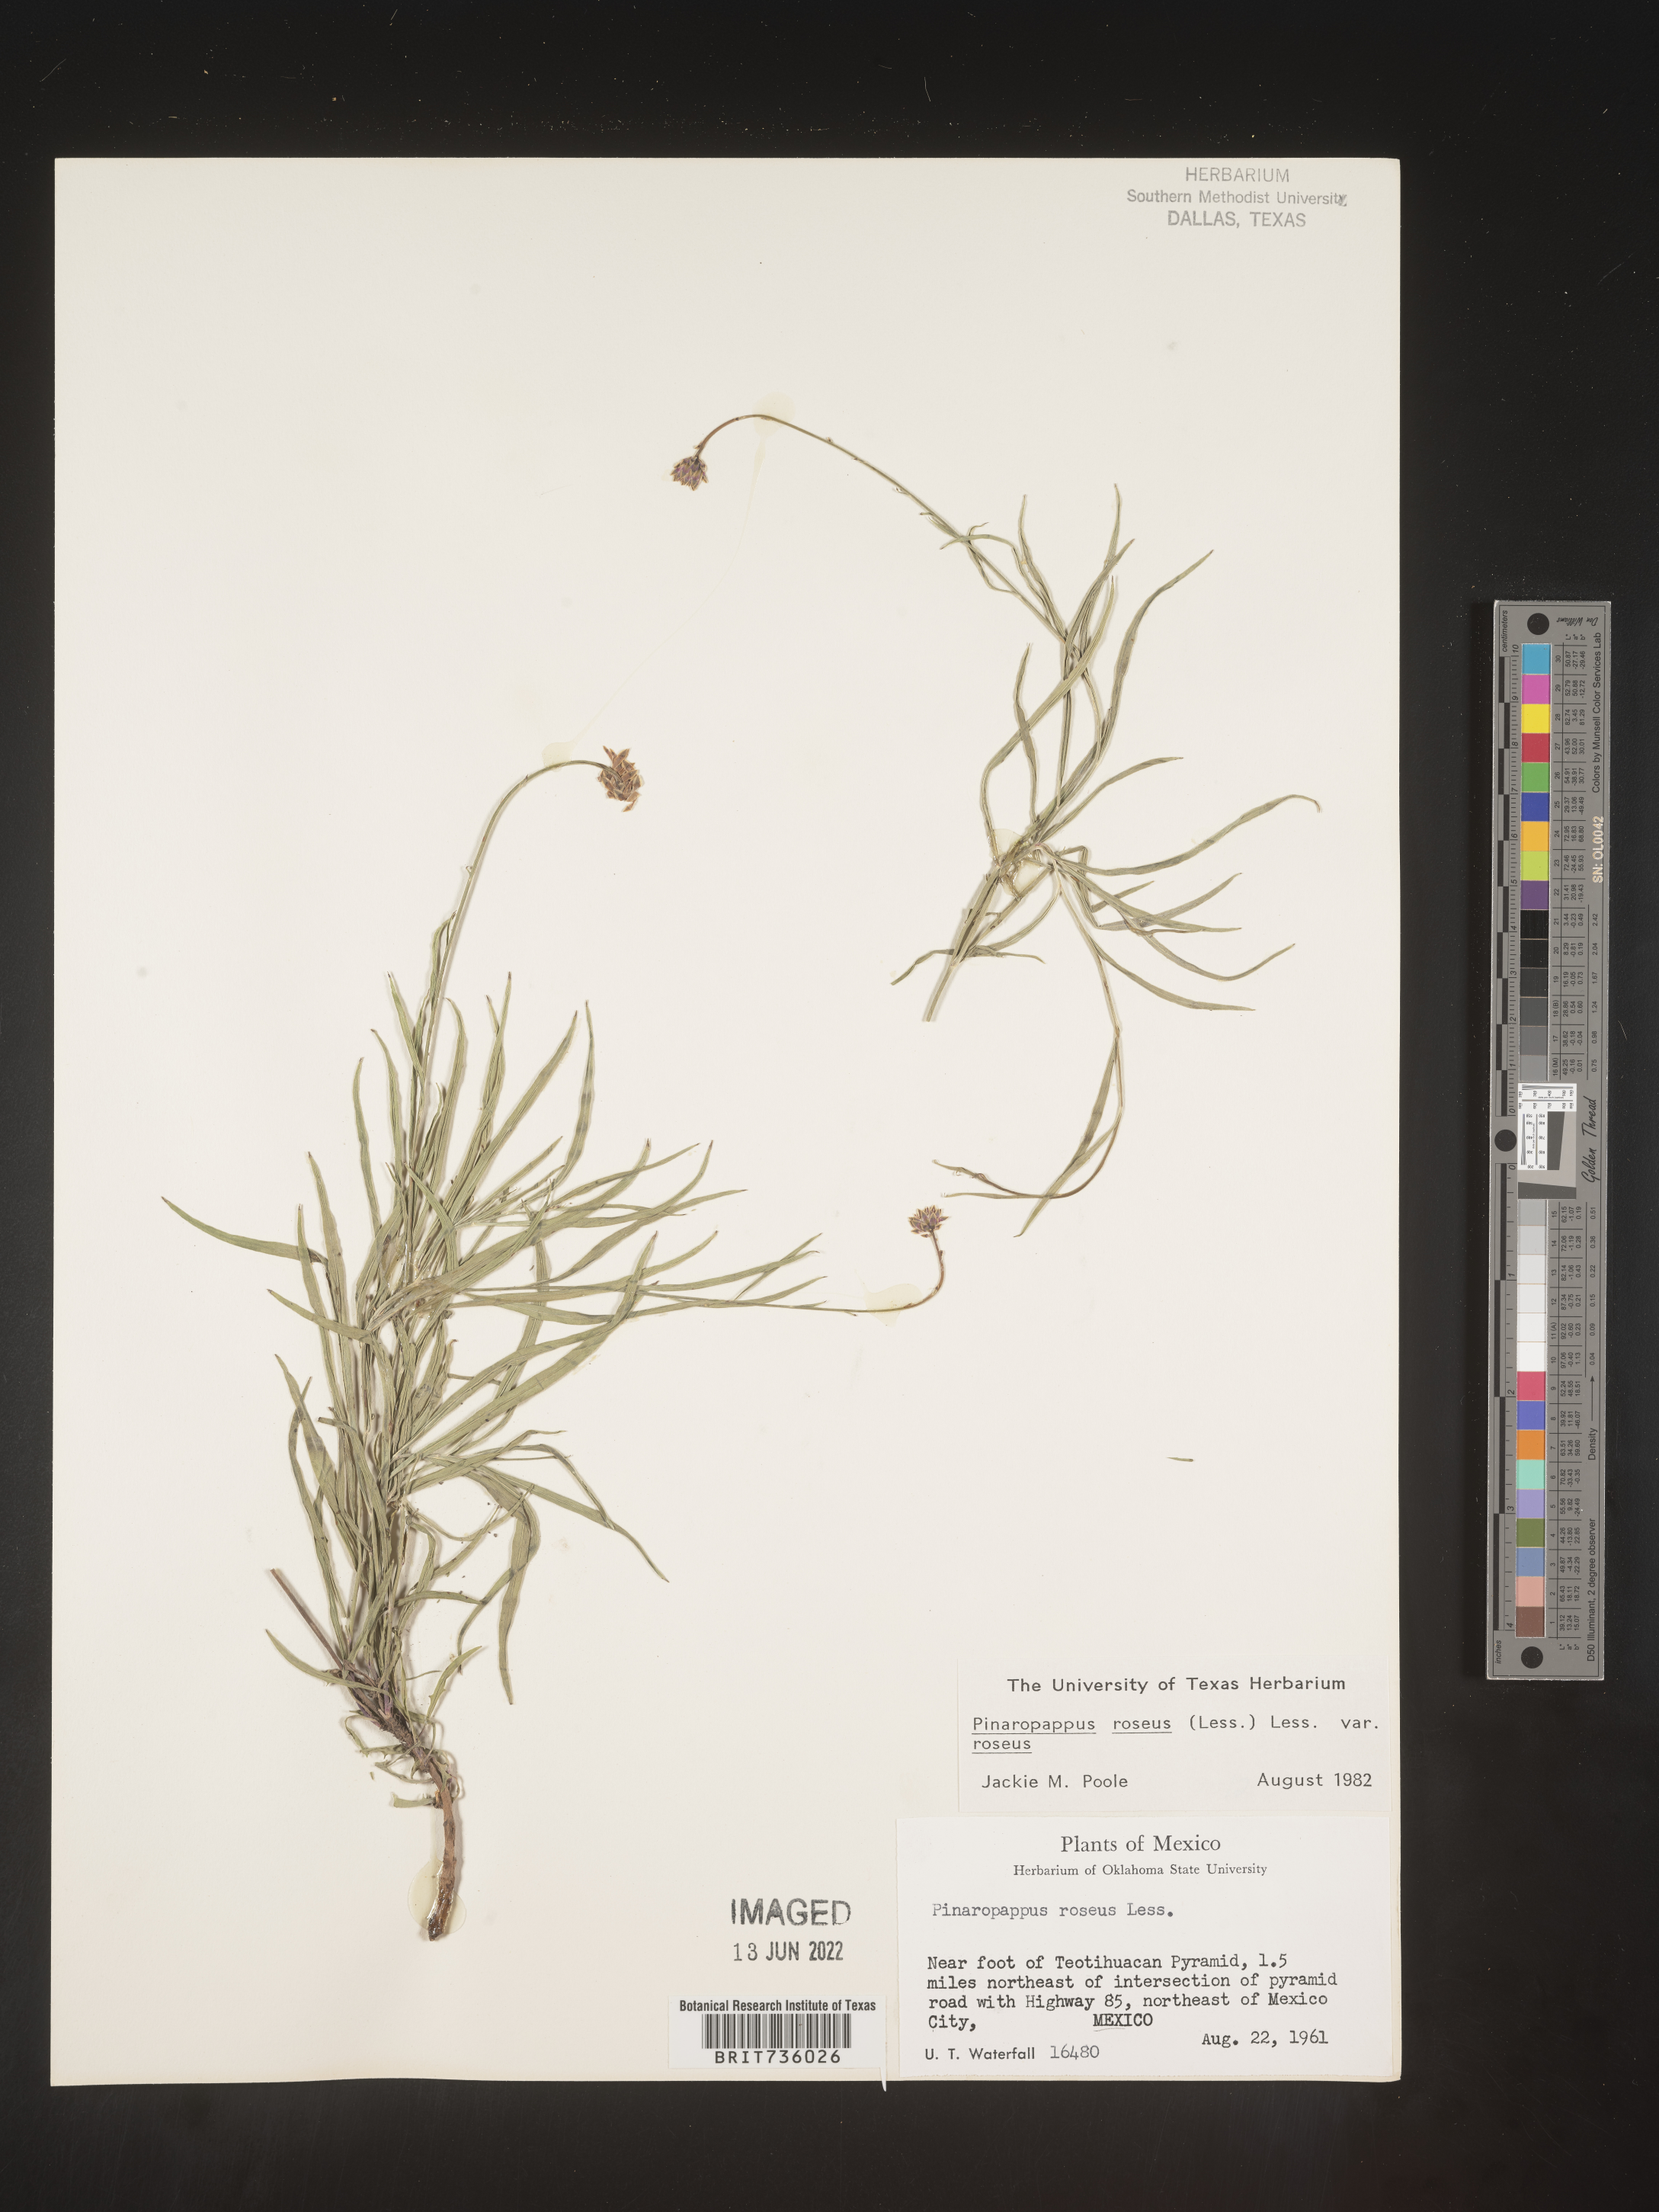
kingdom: Plantae
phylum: Tracheophyta
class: Magnoliopsida
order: Asterales
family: Asteraceae
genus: Pinaropappus
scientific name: Pinaropappus
